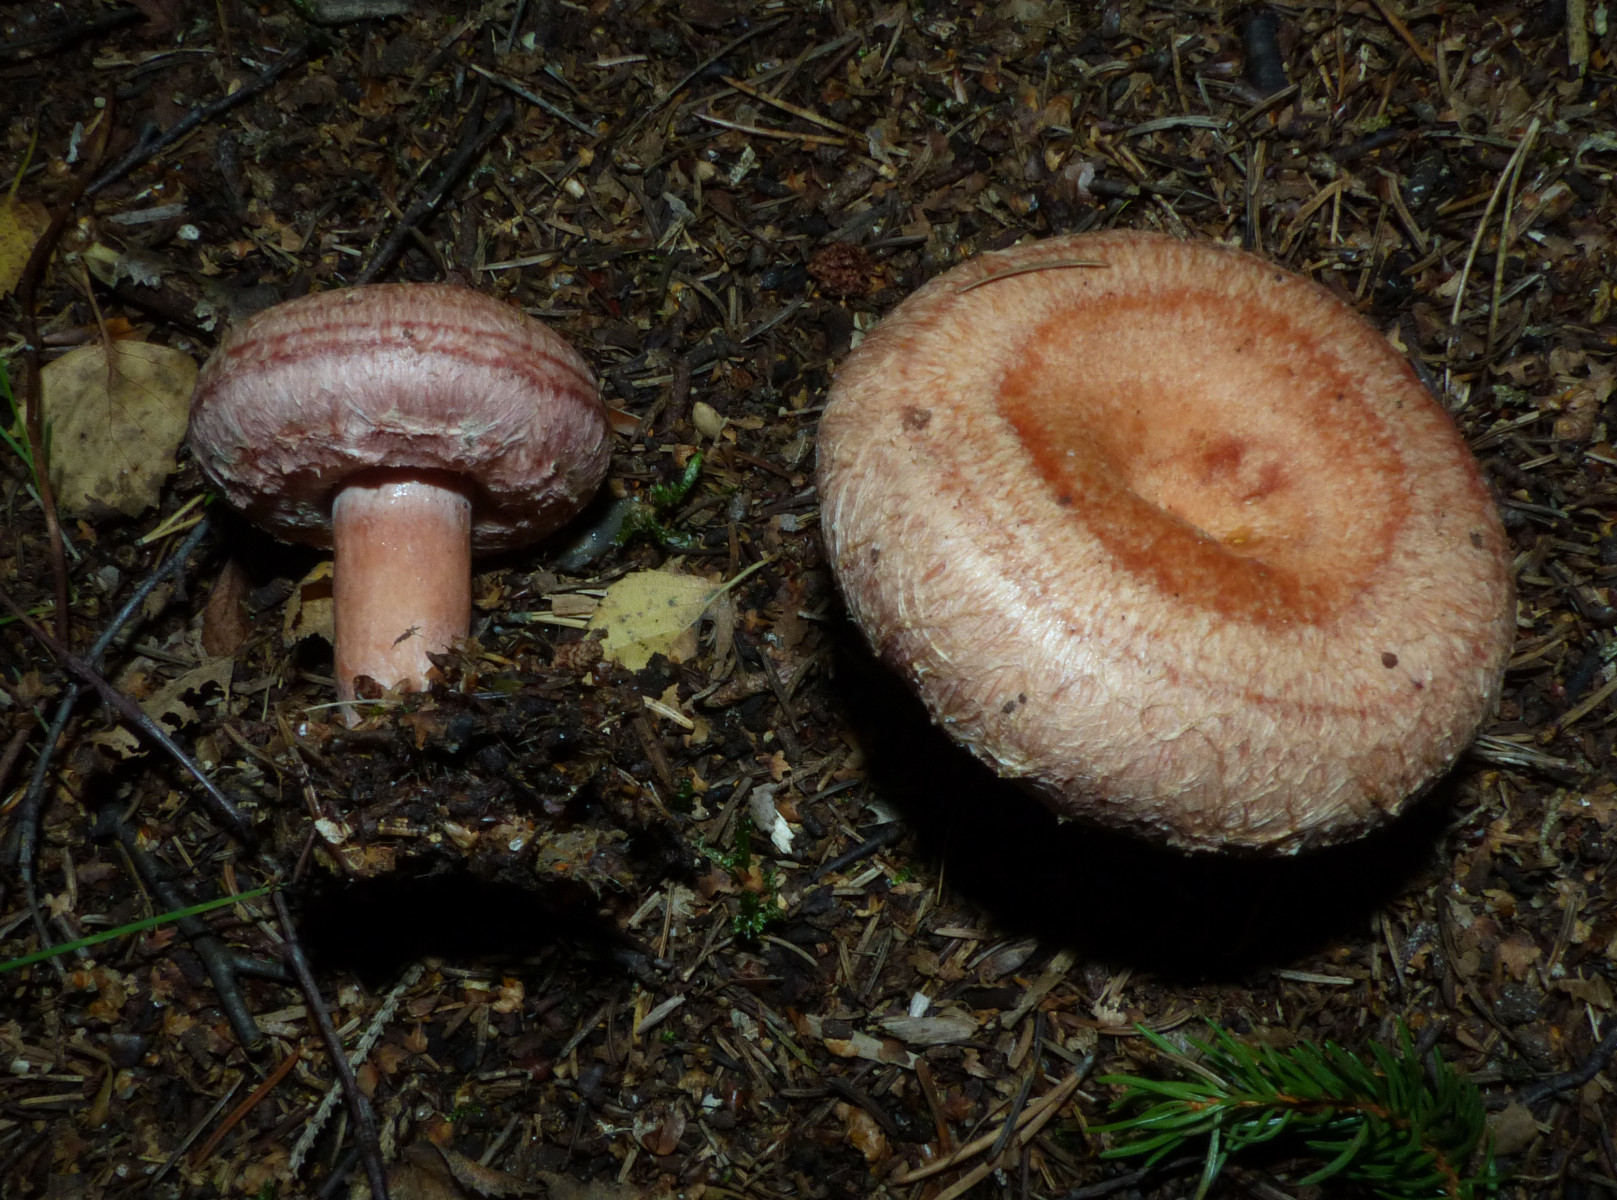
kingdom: Fungi
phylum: Basidiomycota
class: Agaricomycetes
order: Russulales
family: Russulaceae
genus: Lactarius
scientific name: Lactarius torminosus
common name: skægget mælkehat
